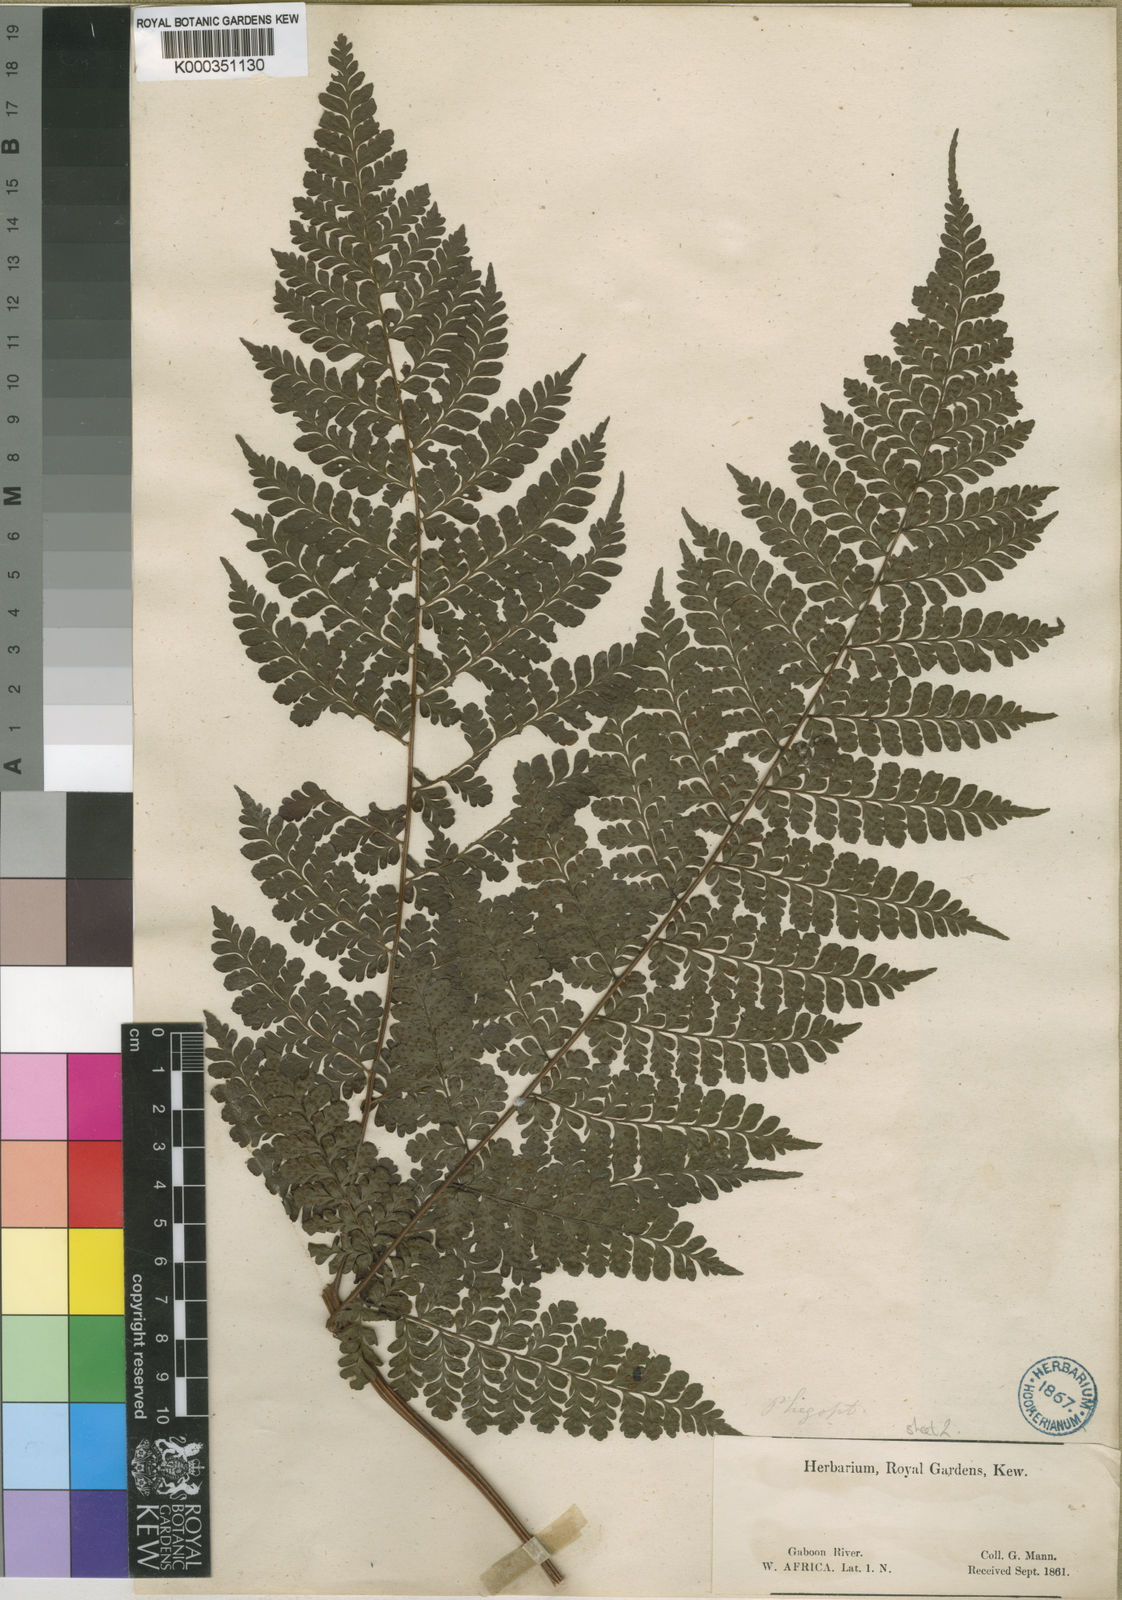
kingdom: Plantae
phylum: Tracheophyta
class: Polypodiopsida
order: Polypodiales
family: Tectariaceae
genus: Triplophyllum
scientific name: Triplophyllum troupinii
